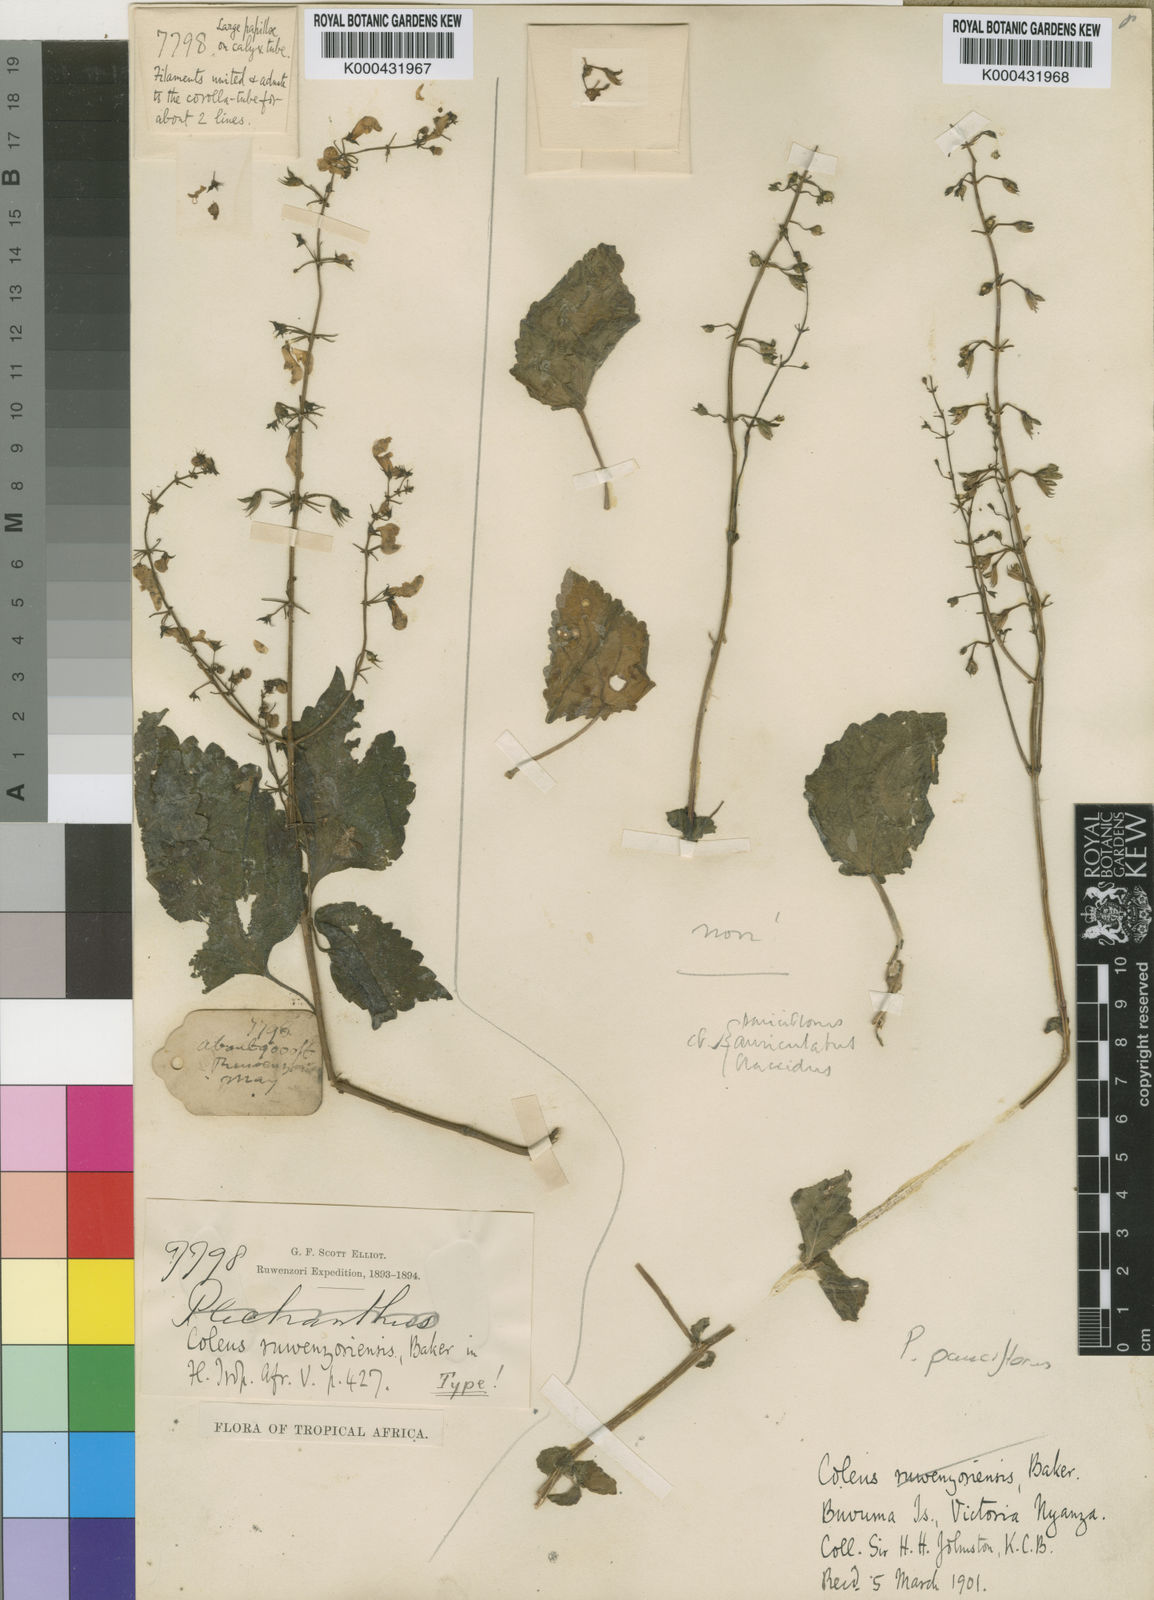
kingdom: Plantae
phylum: Tracheophyta
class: Magnoliopsida
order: Lamiales
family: Lamiaceae
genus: Plectranthus
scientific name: Plectranthus
